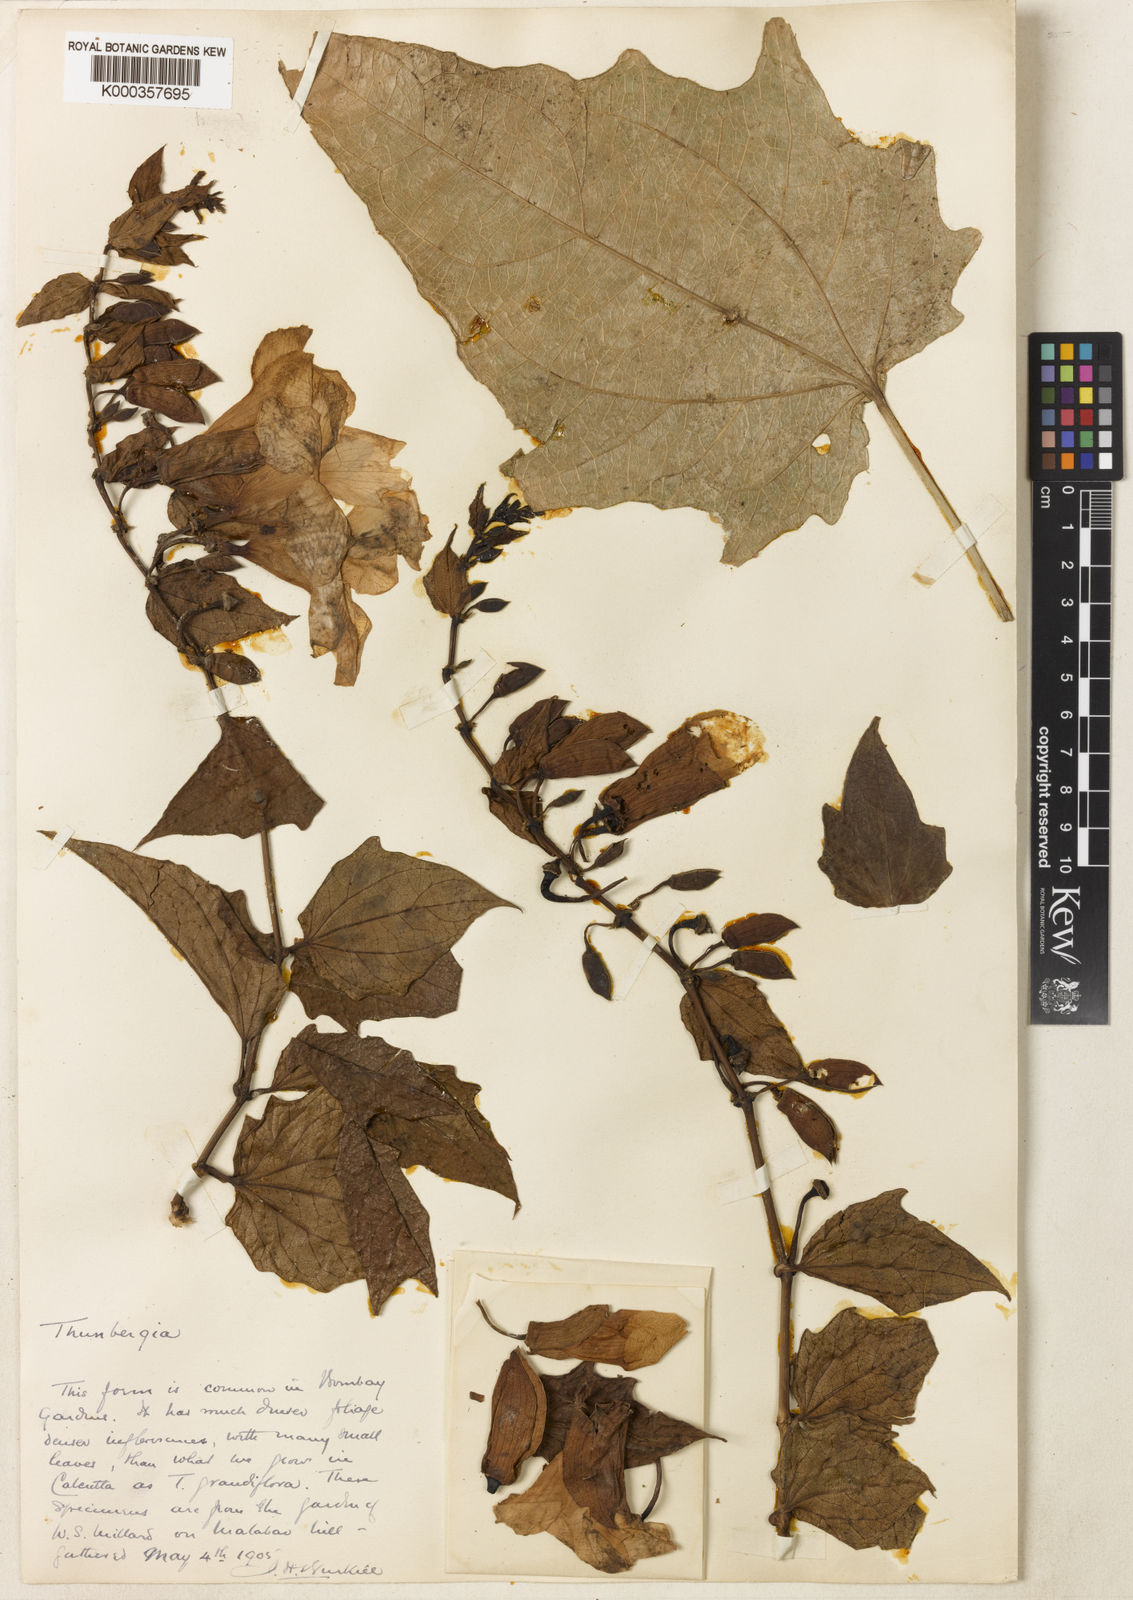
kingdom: Plantae
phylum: Tracheophyta
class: Magnoliopsida
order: Lamiales
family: Acanthaceae
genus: Thunbergia
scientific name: Thunbergia grandiflora
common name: Bengal trumpet
